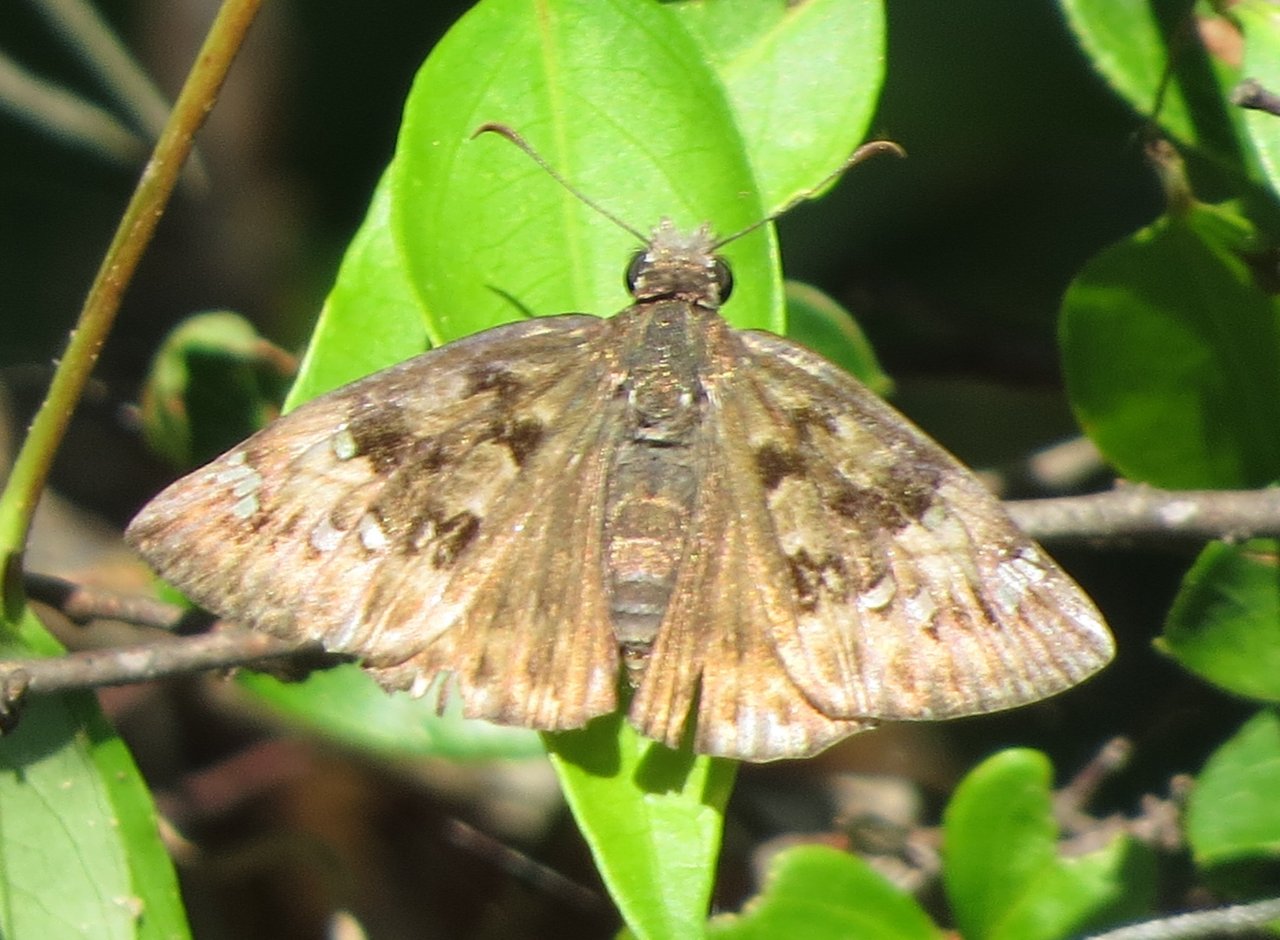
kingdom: Animalia
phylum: Arthropoda
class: Insecta
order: Lepidoptera
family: Hesperiidae
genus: Gesta
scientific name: Gesta
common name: Horace's Duskywing
